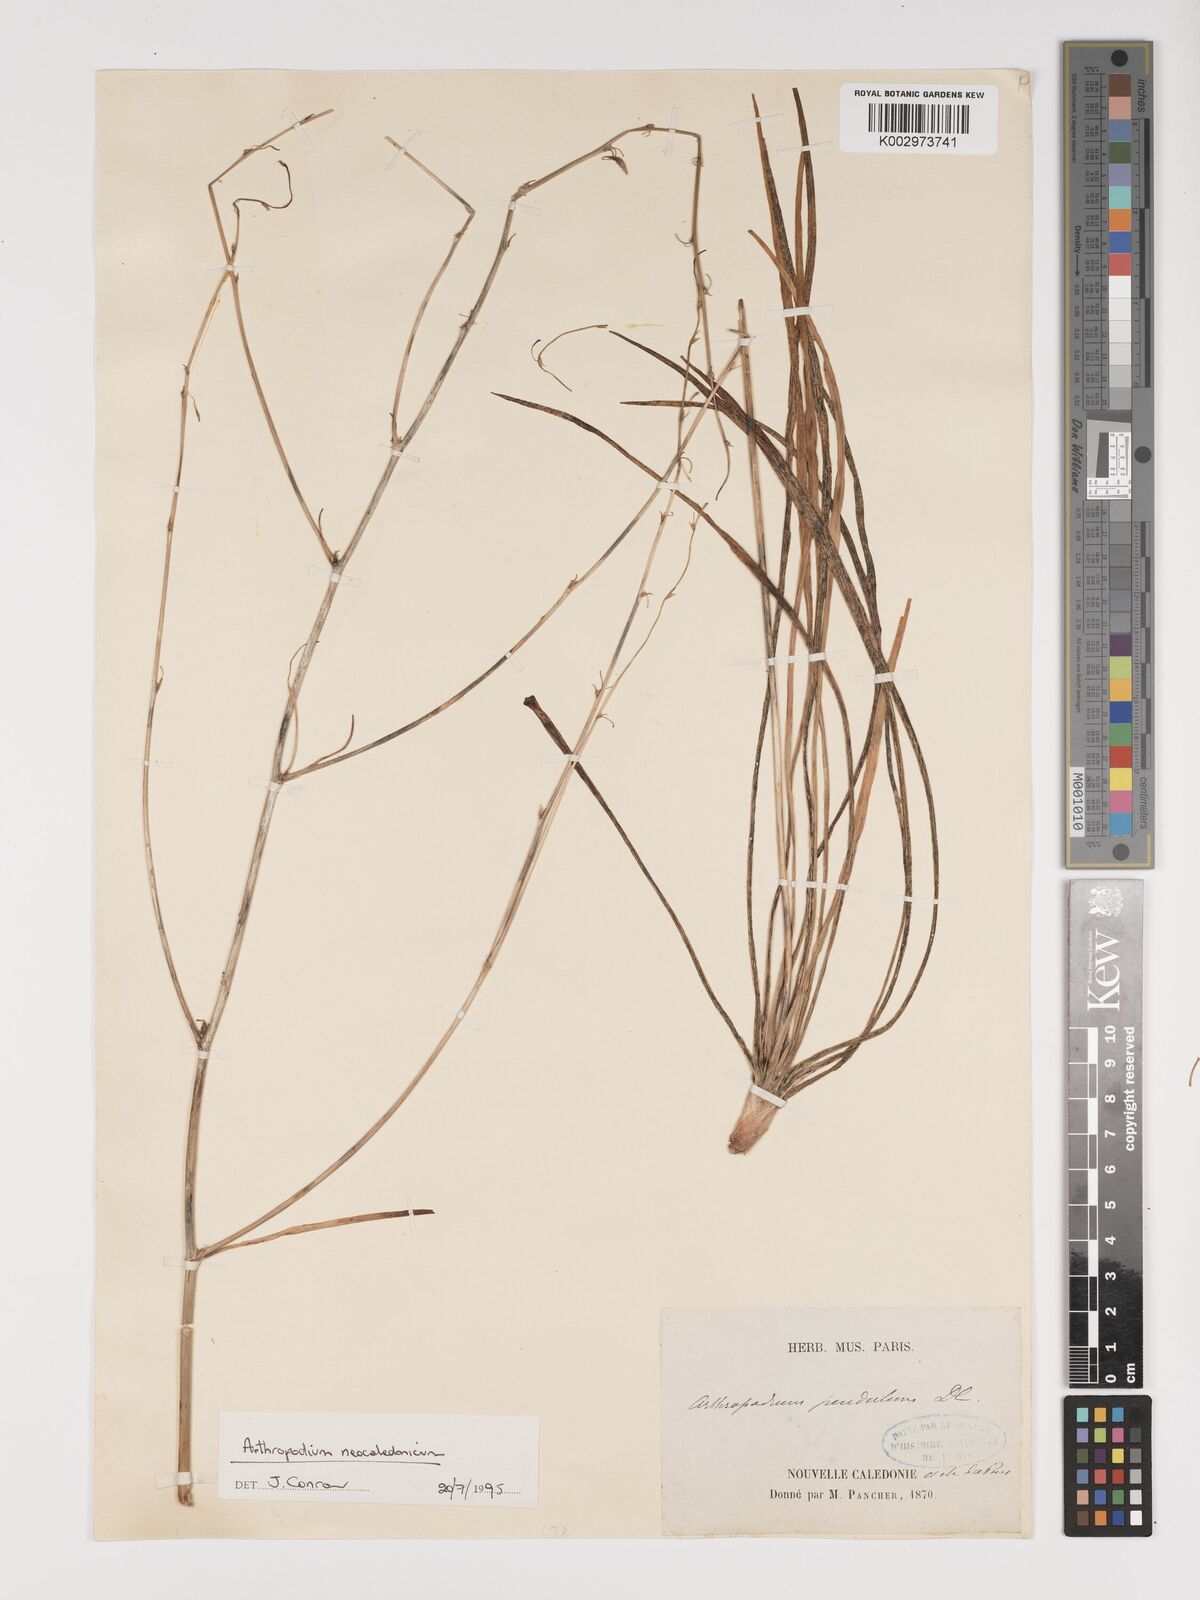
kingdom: Plantae
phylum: Tracheophyta
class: Liliopsida
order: Asparagales
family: Asparagaceae
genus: Arthropodium
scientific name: Arthropodium neocaledonicum
